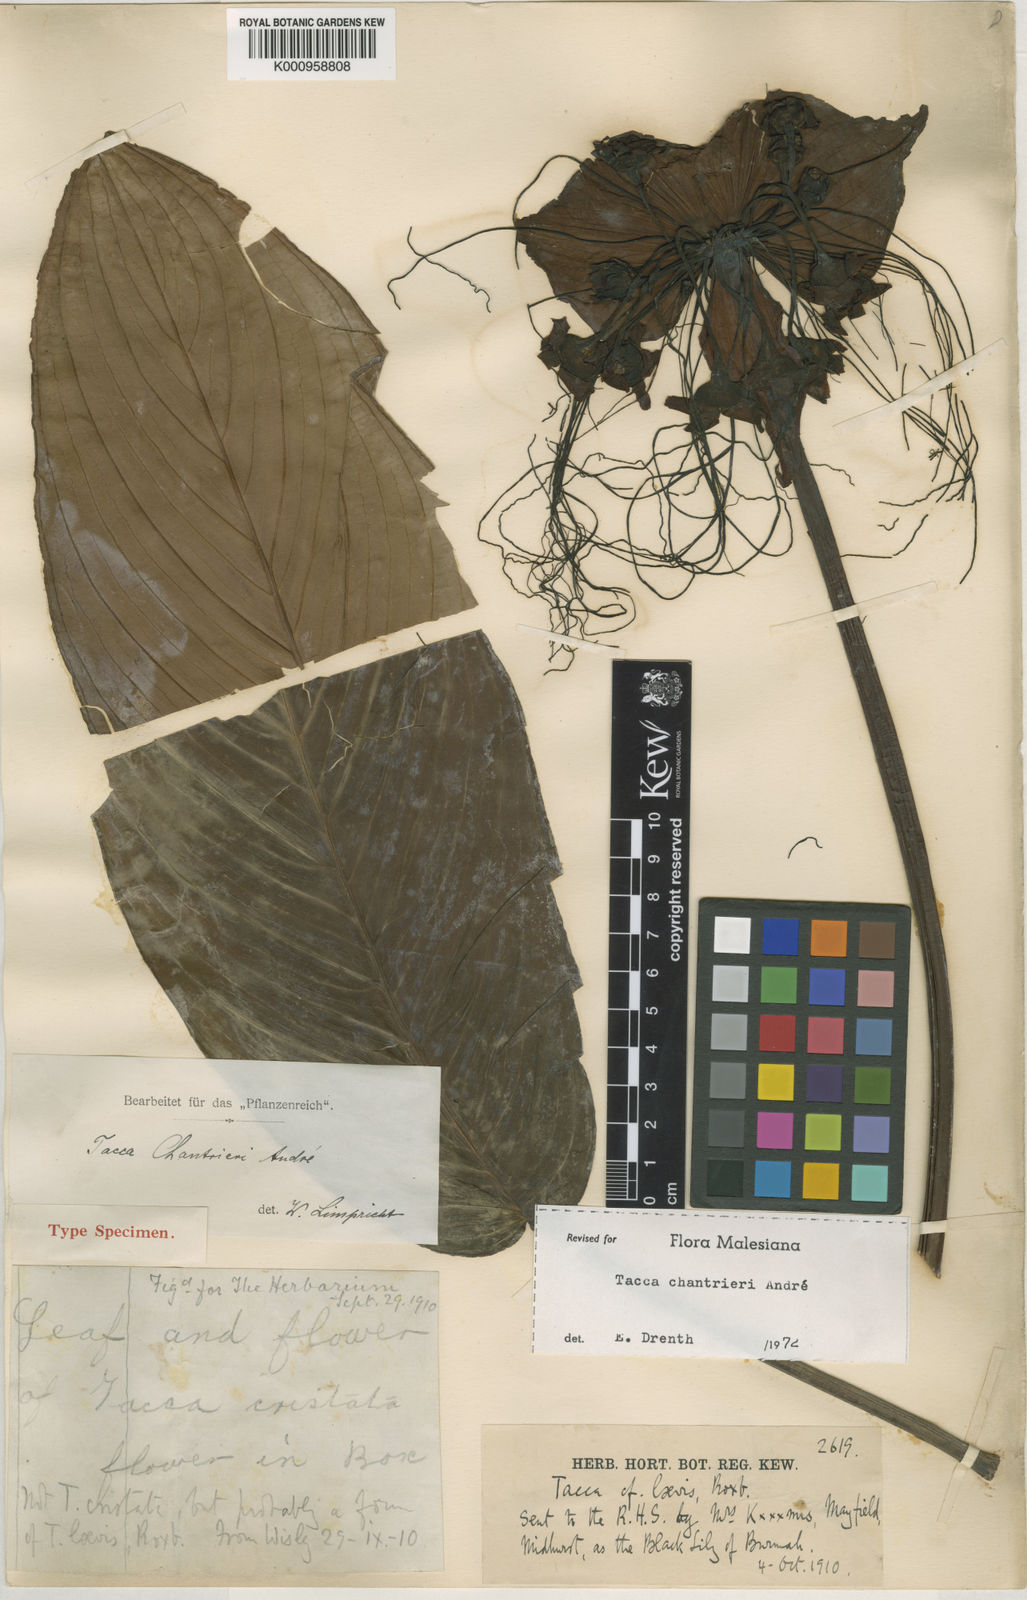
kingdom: Plantae
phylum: Tracheophyta
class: Liliopsida
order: Dioscoreales
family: Dioscoreaceae
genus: Tacca
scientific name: Tacca
